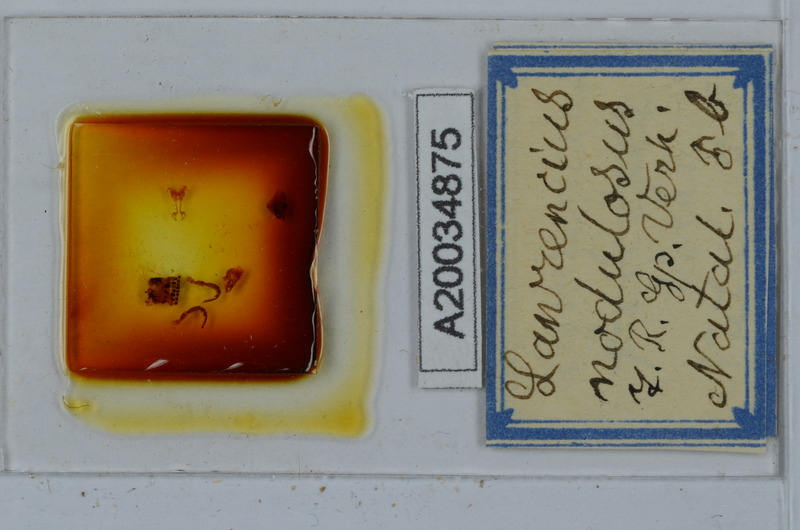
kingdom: Animalia
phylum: Chordata
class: Aves
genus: Lawrencius
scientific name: Lawrencius
